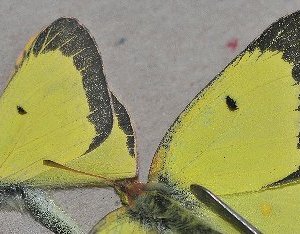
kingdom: Animalia
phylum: Arthropoda
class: Insecta
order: Lepidoptera
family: Pieridae
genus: Colias
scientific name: Colias philodice
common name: Clouded Sulphur
